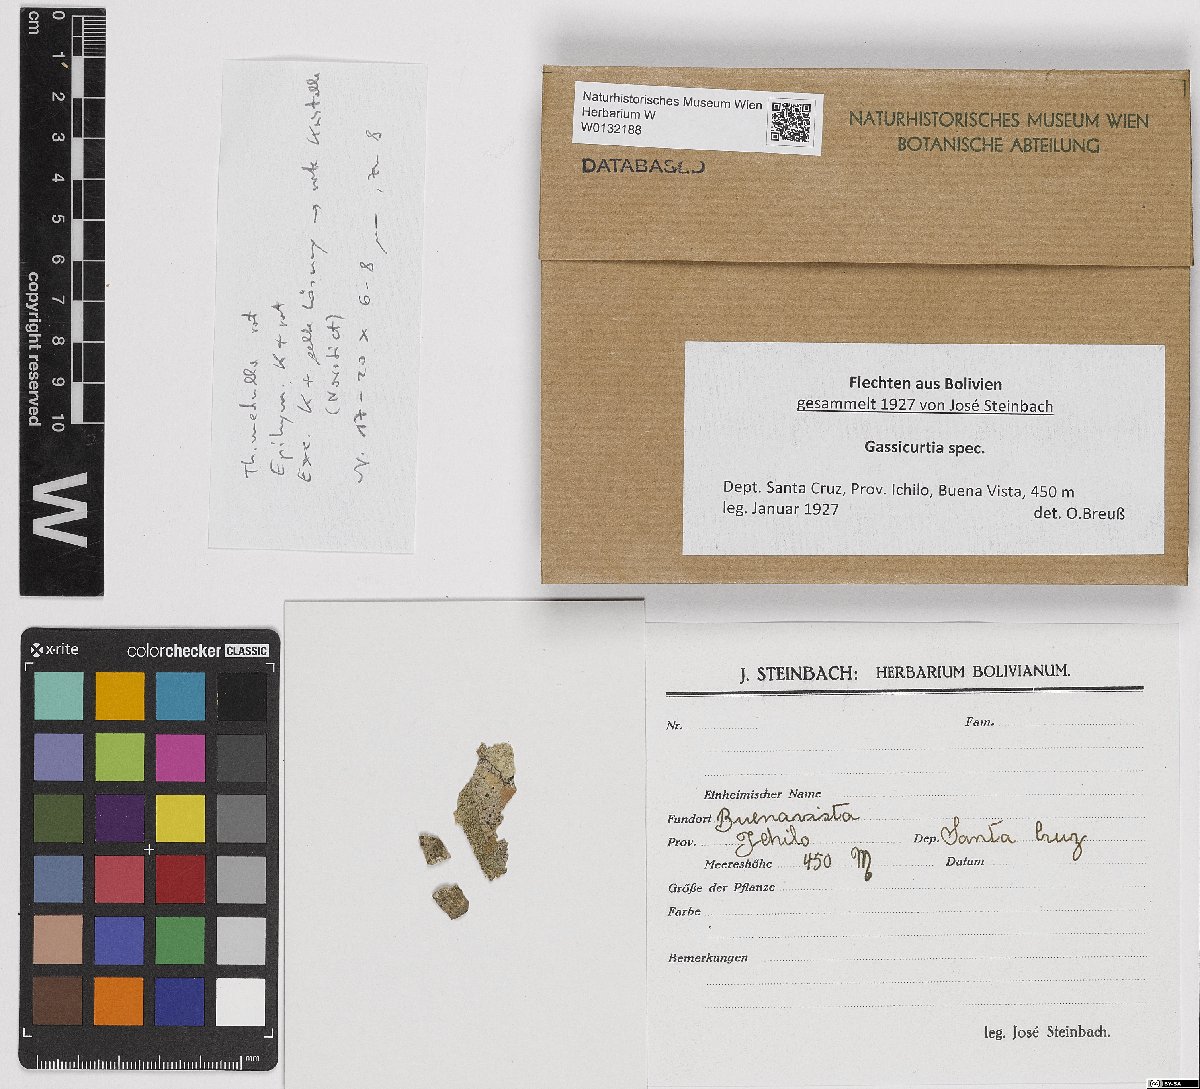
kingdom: Fungi
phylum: Ascomycota
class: Lecanoromycetes
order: Caliciales
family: Caliciaceae
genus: Gassicurtia
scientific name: Gassicurtia
